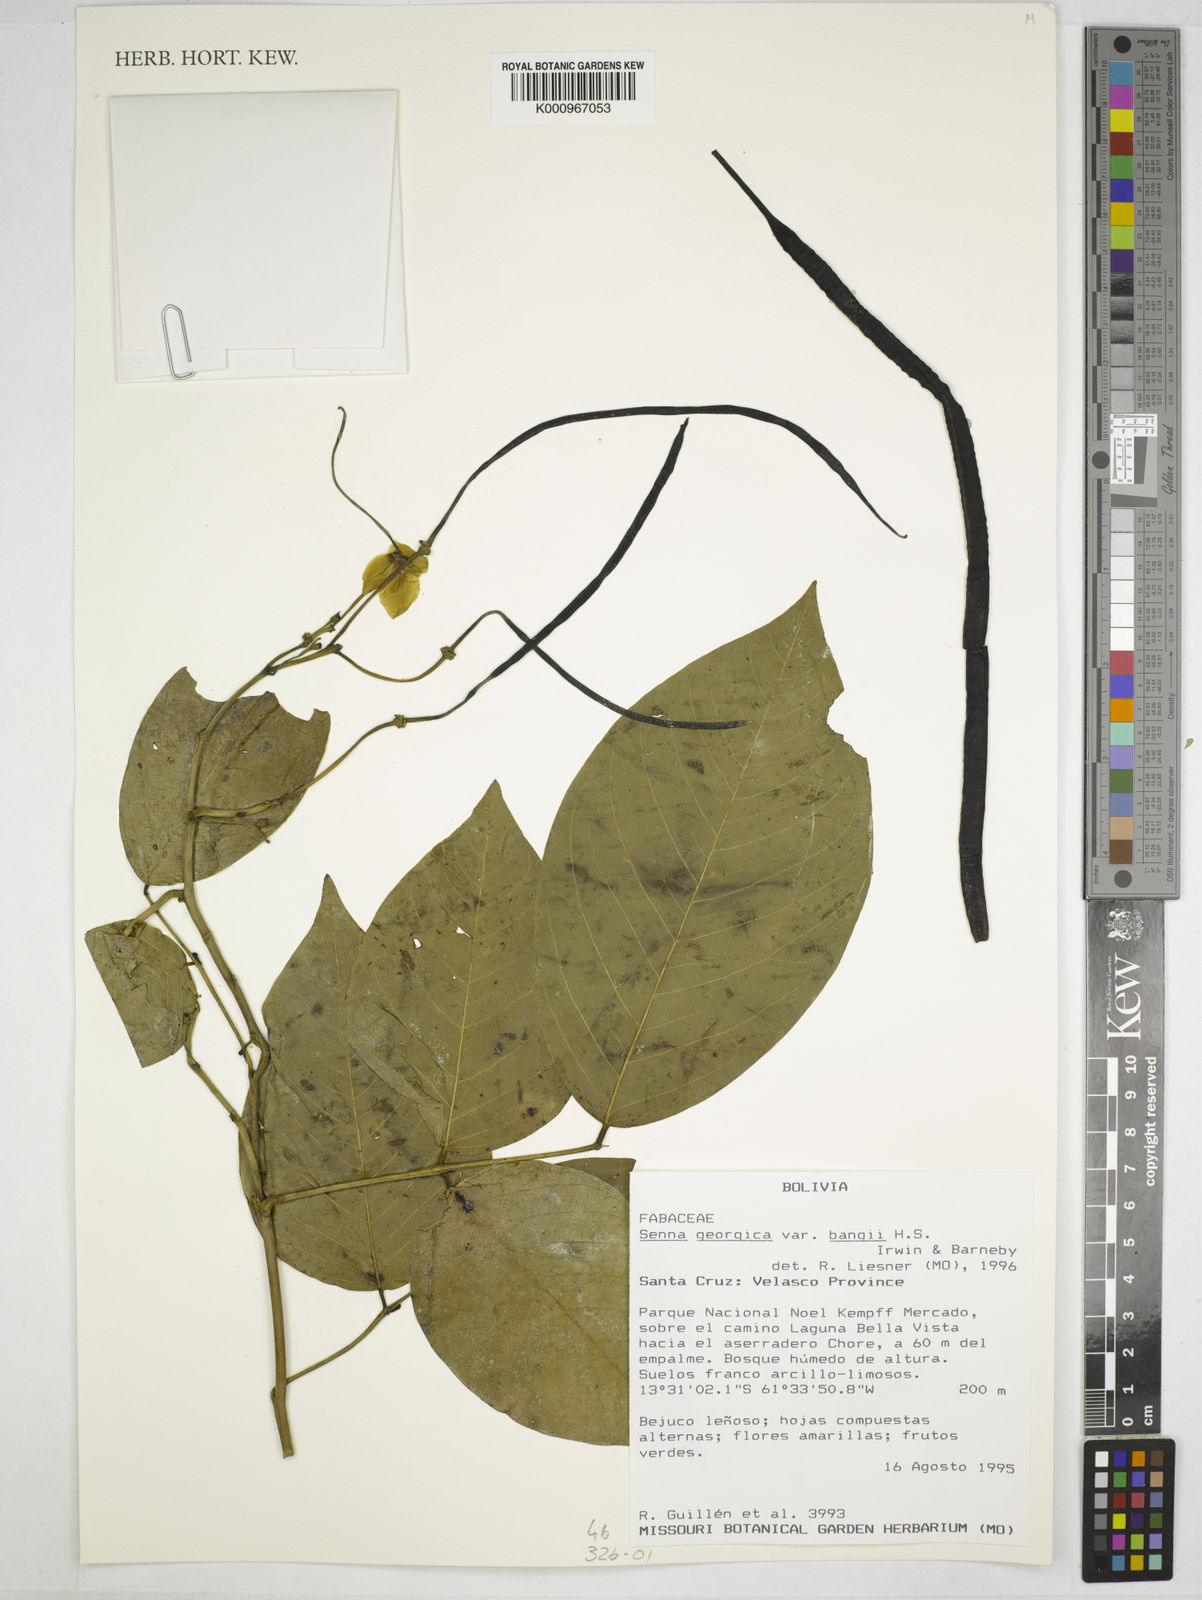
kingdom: Plantae
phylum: Tracheophyta
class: Magnoliopsida
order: Fabales
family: Fabaceae
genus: Senna
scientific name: Senna georgica
